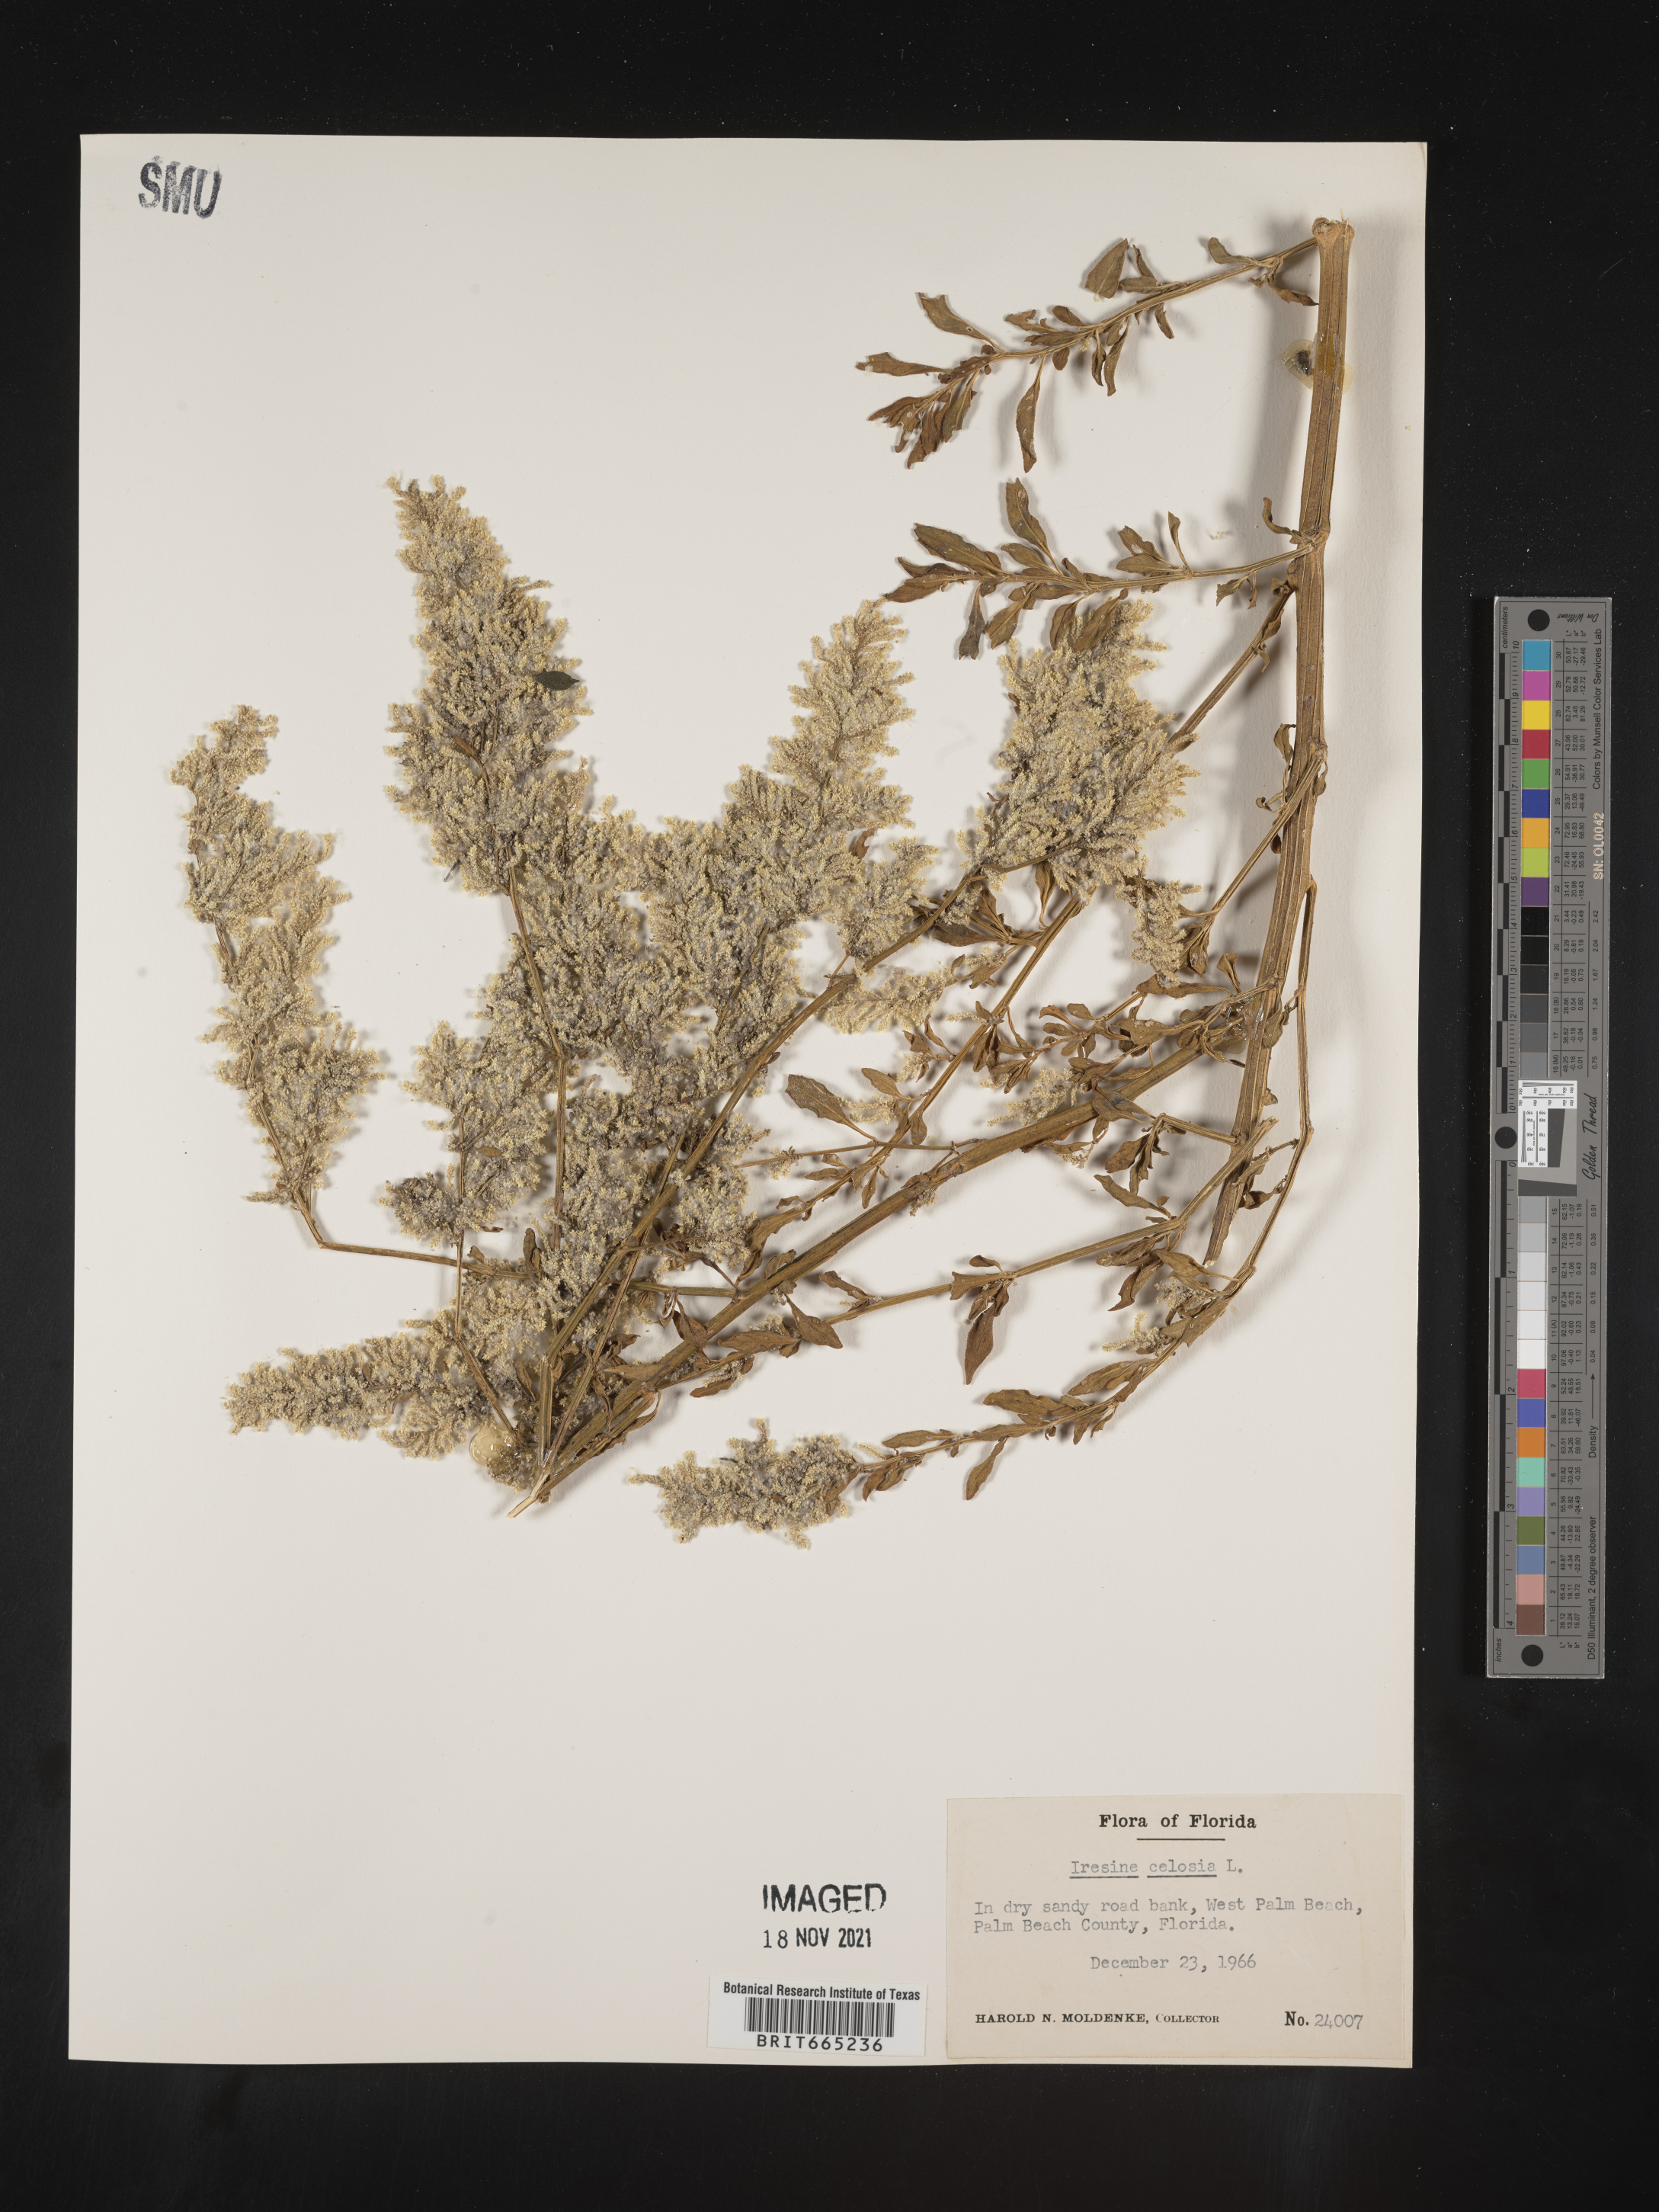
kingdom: Plantae
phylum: Tracheophyta
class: Magnoliopsida
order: Caryophyllales
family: Amaranthaceae
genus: Iresine
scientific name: Iresine
